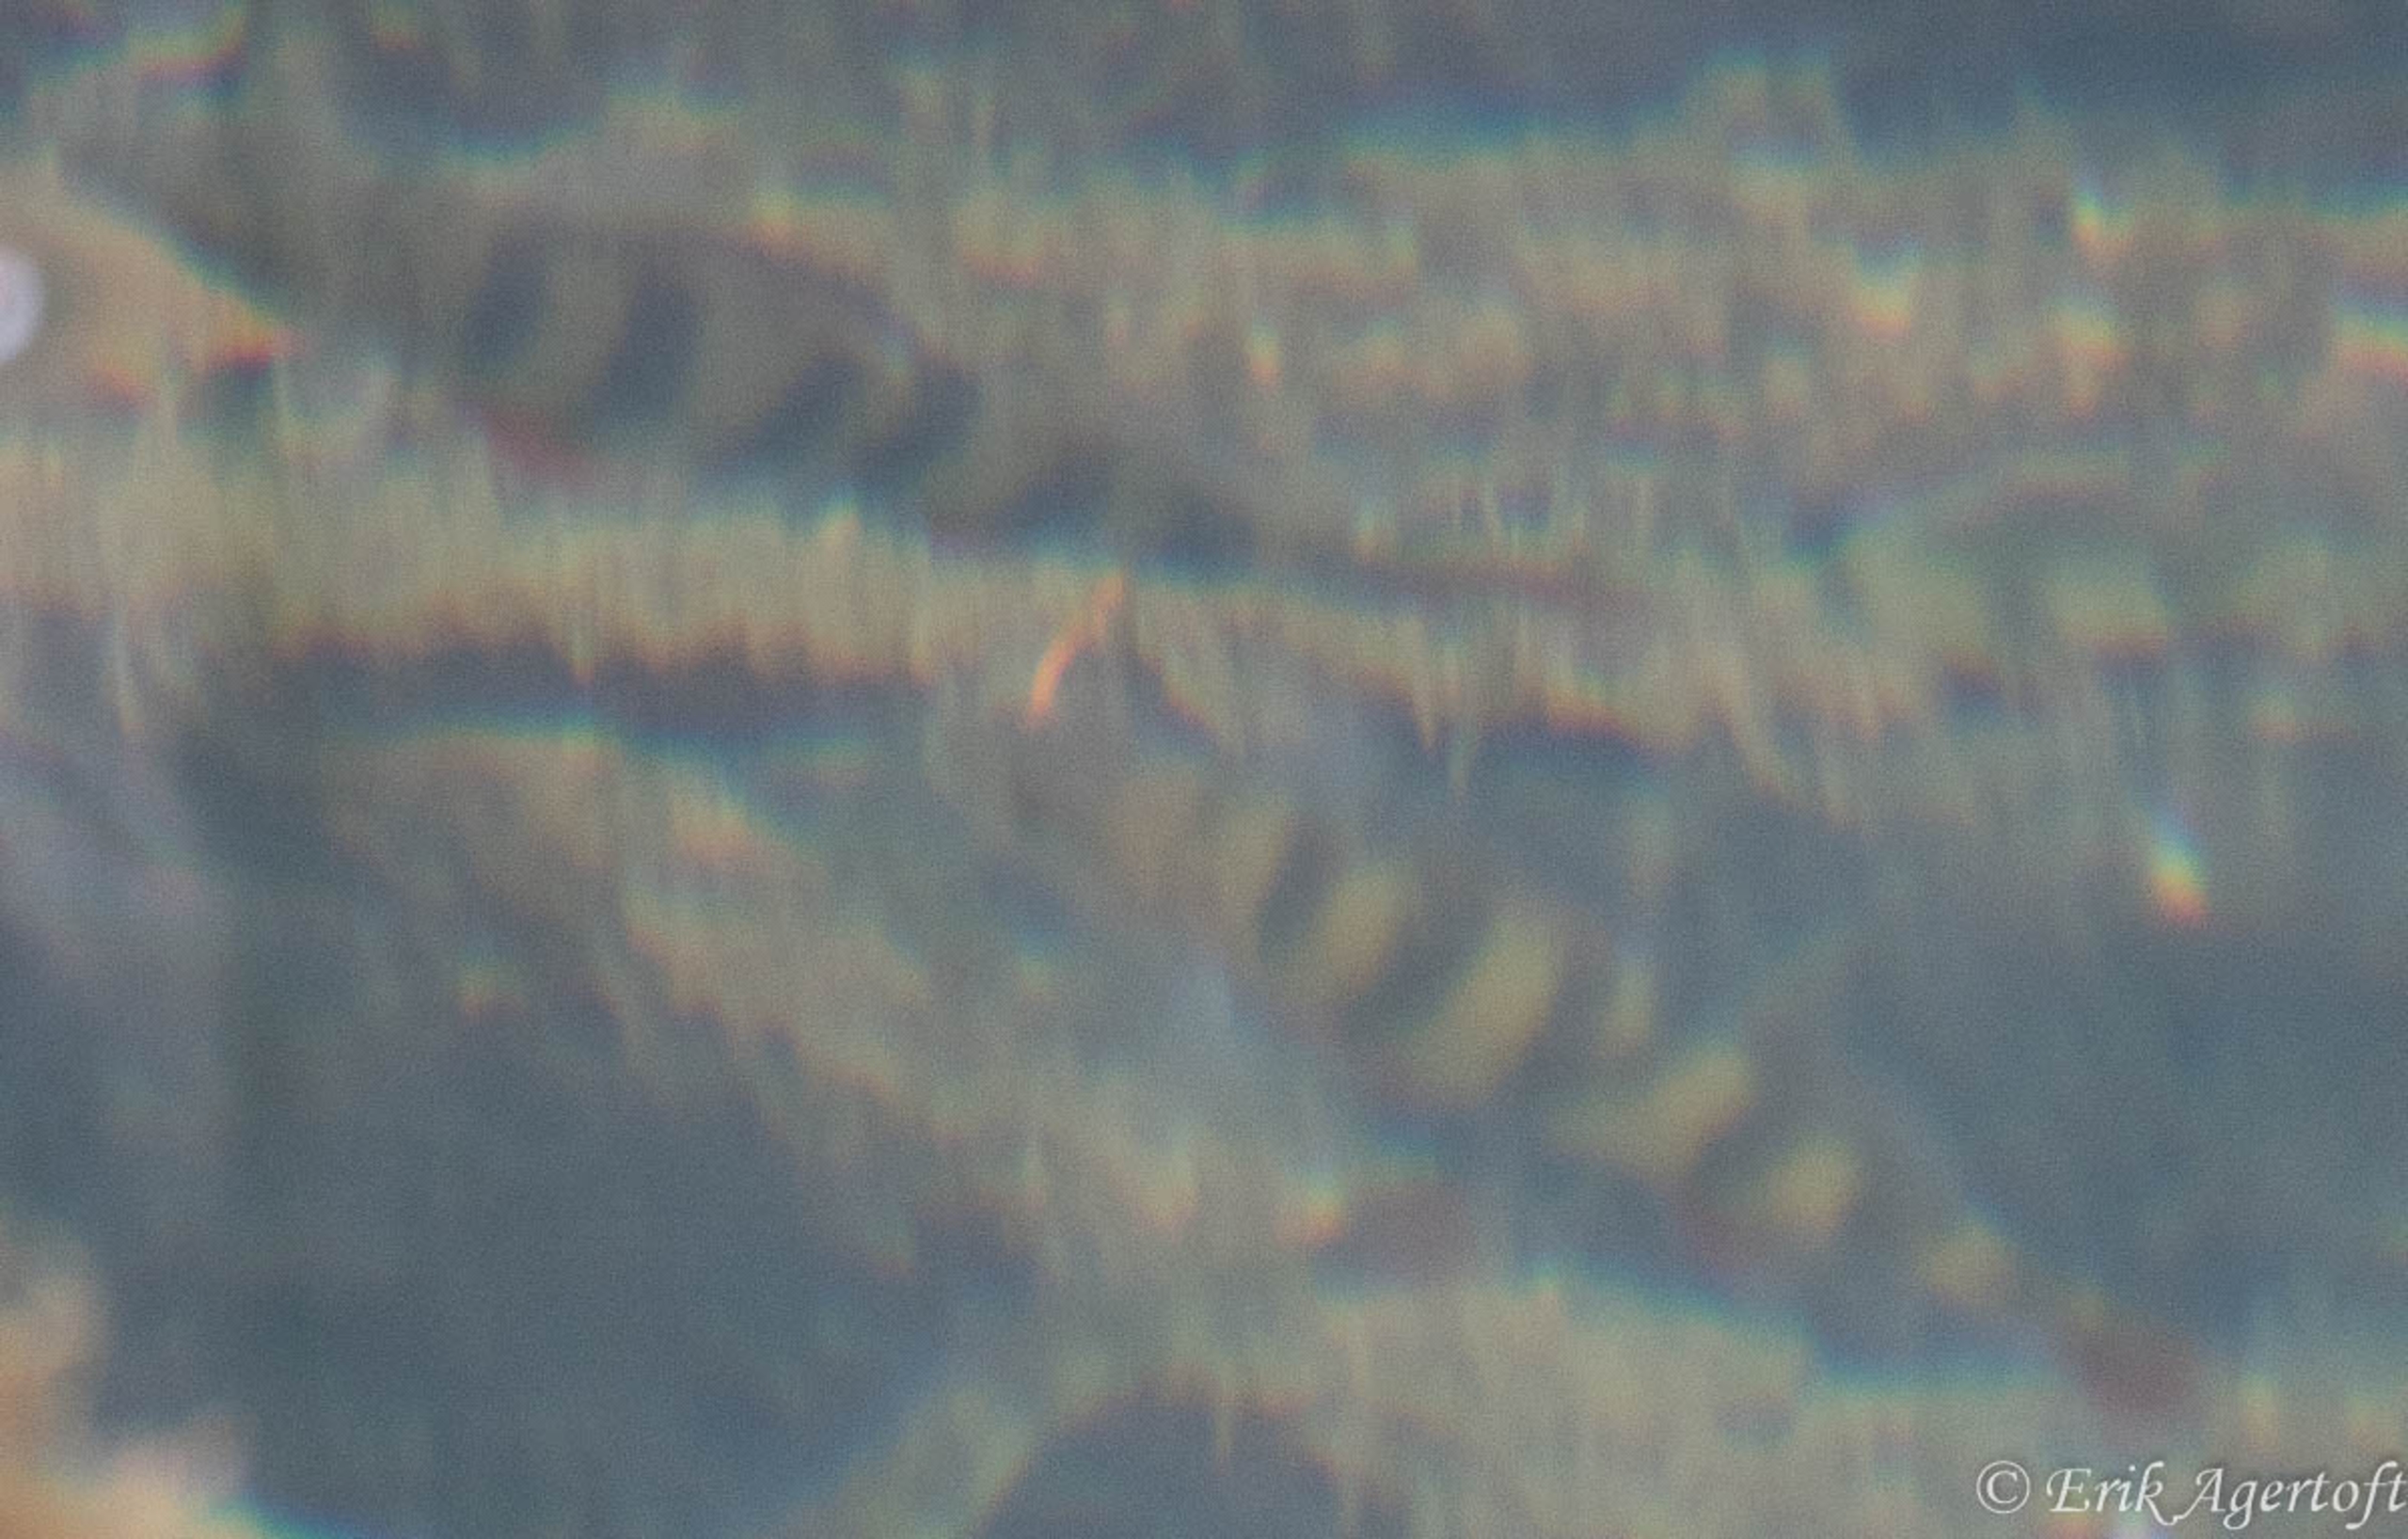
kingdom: Animalia
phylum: Chordata
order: Perciformes
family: Percidae
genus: Perca
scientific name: Perca fluviatilis
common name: Aborre
